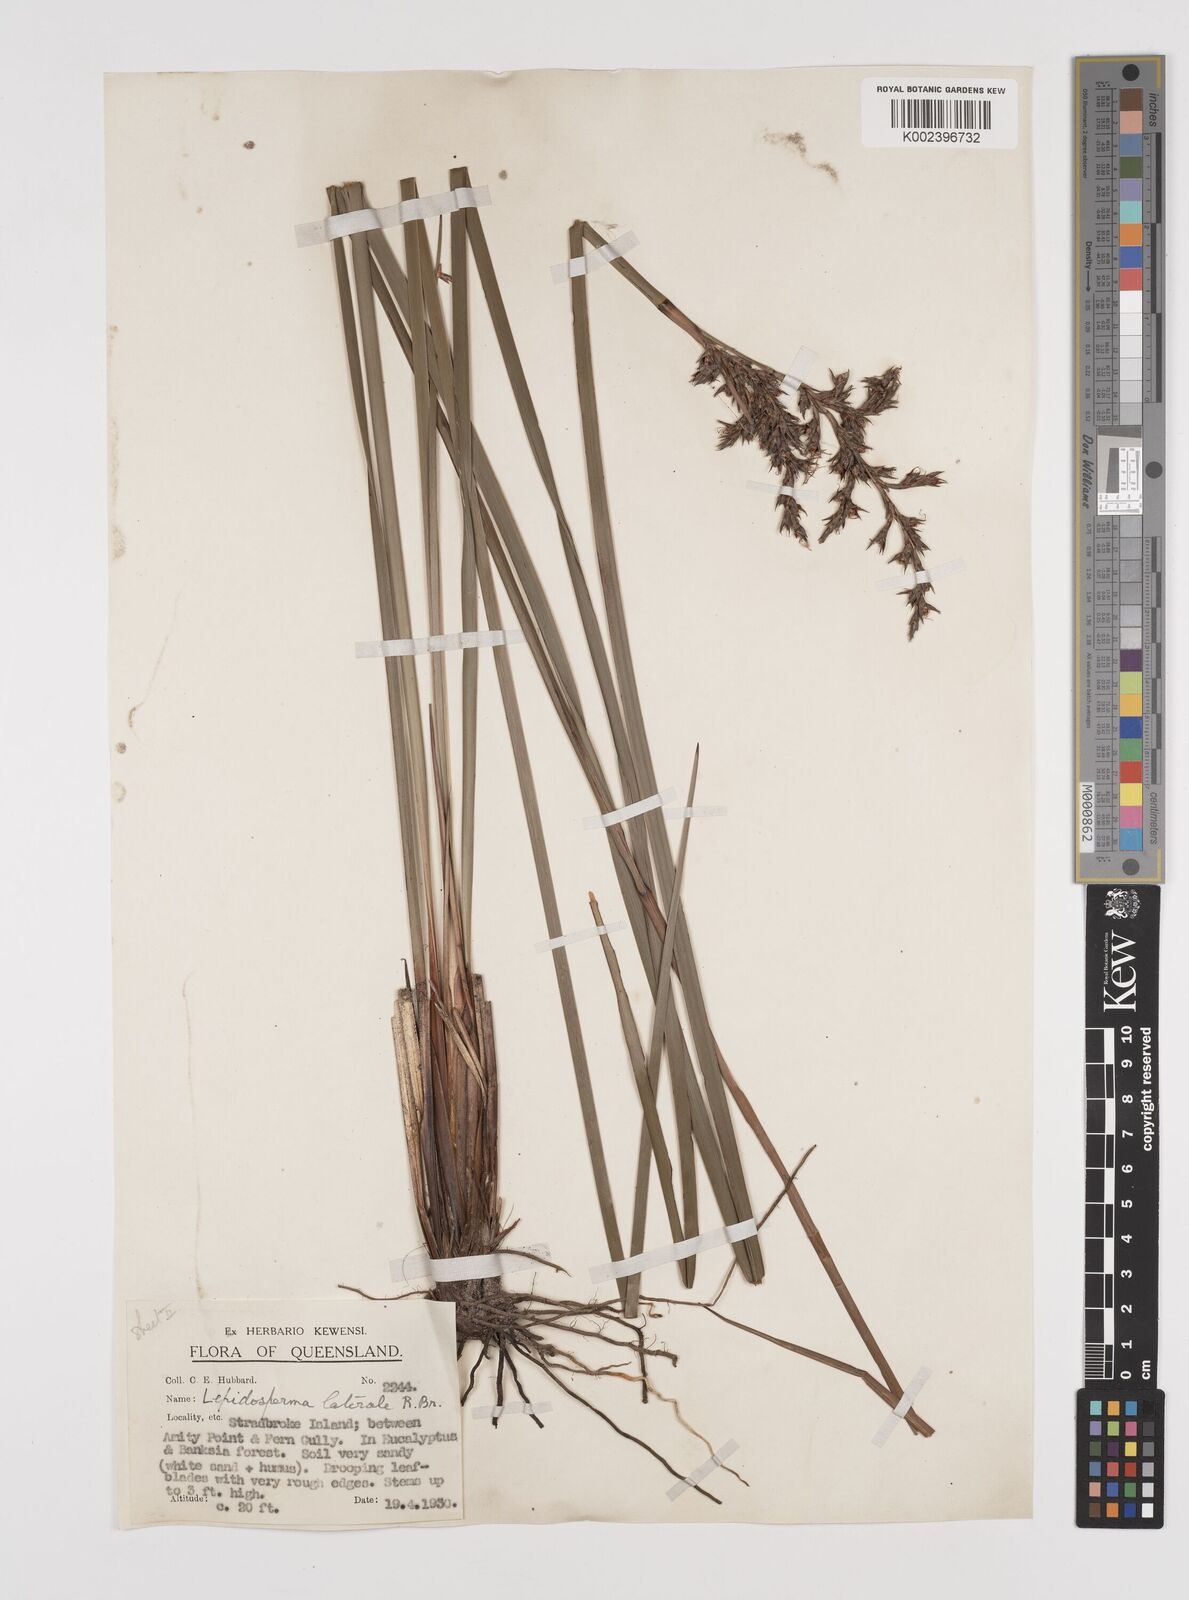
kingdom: Plantae
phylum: Tracheophyta
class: Liliopsida
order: Poales
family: Cyperaceae
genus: Lepidosperma
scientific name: Lepidosperma laterale
